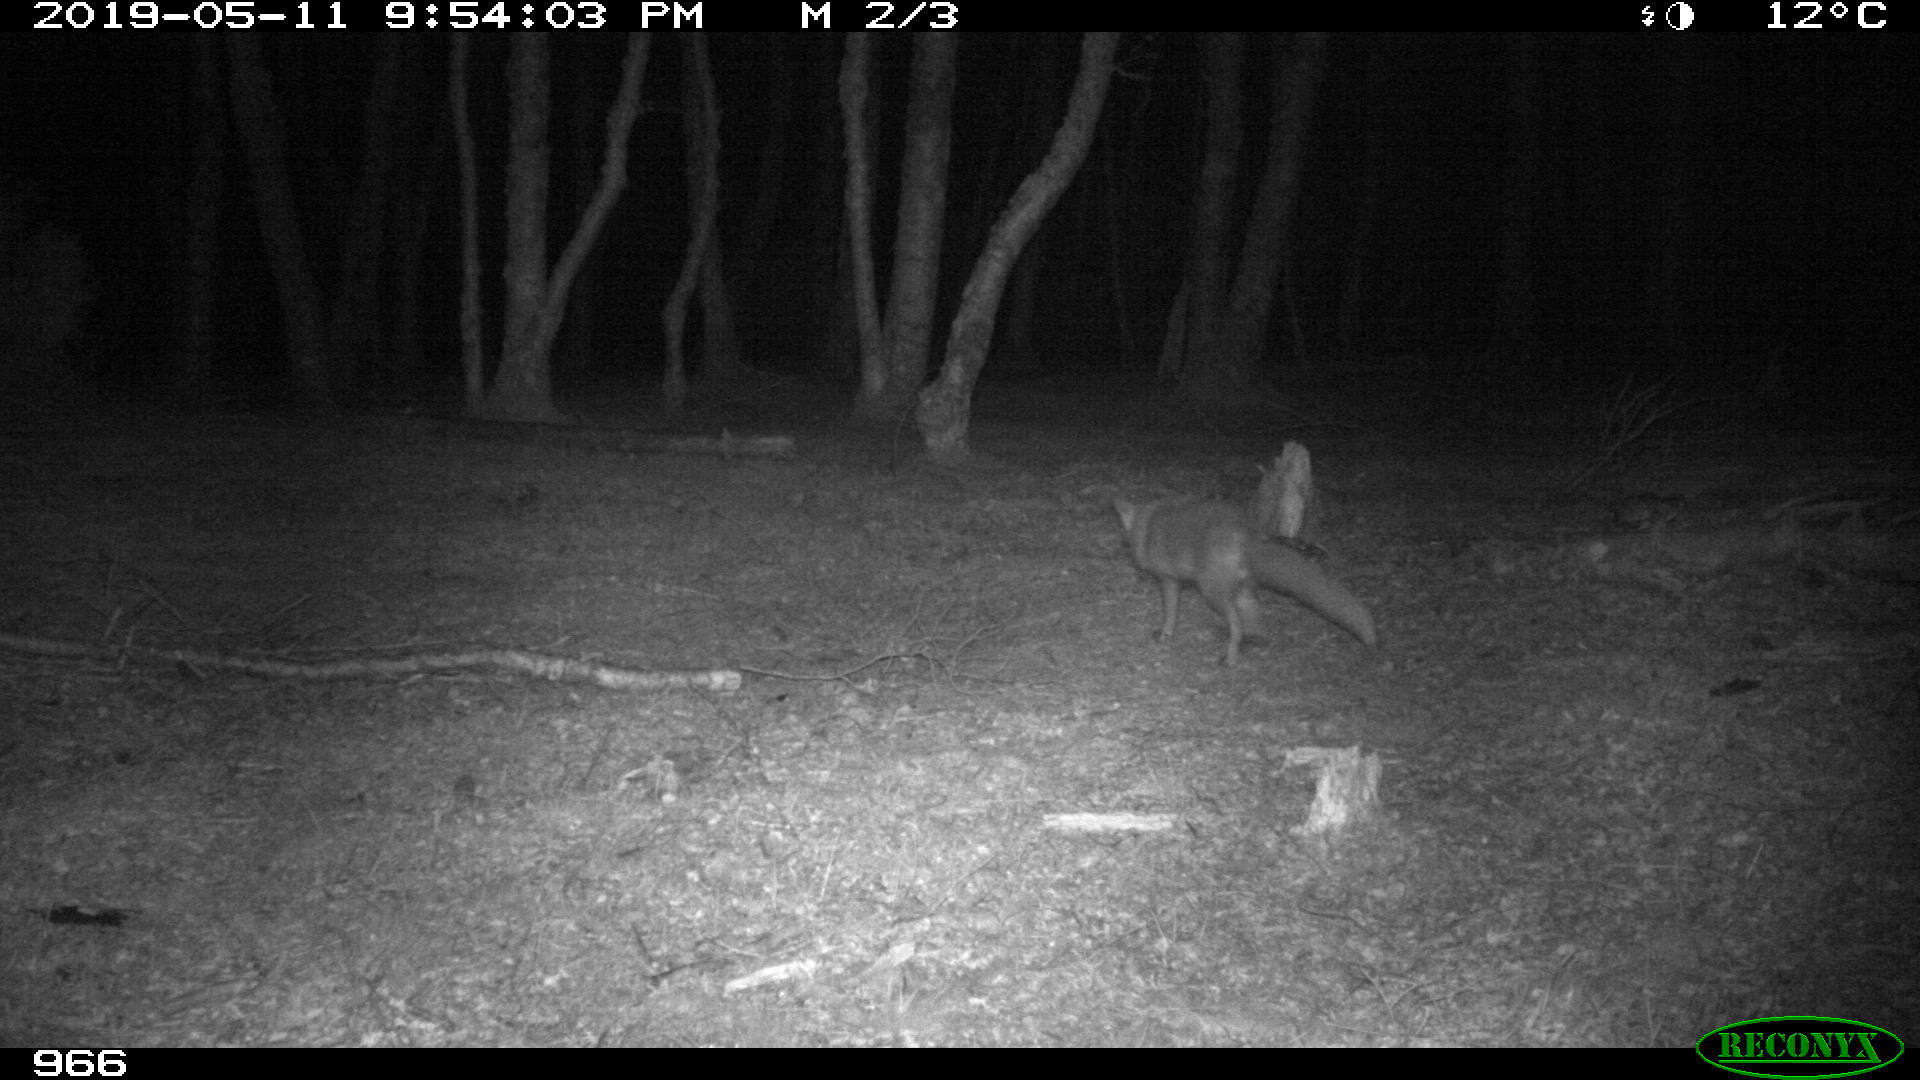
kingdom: Animalia
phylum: Chordata
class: Mammalia
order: Carnivora
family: Canidae
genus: Vulpes
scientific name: Vulpes vulpes
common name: Red fox
